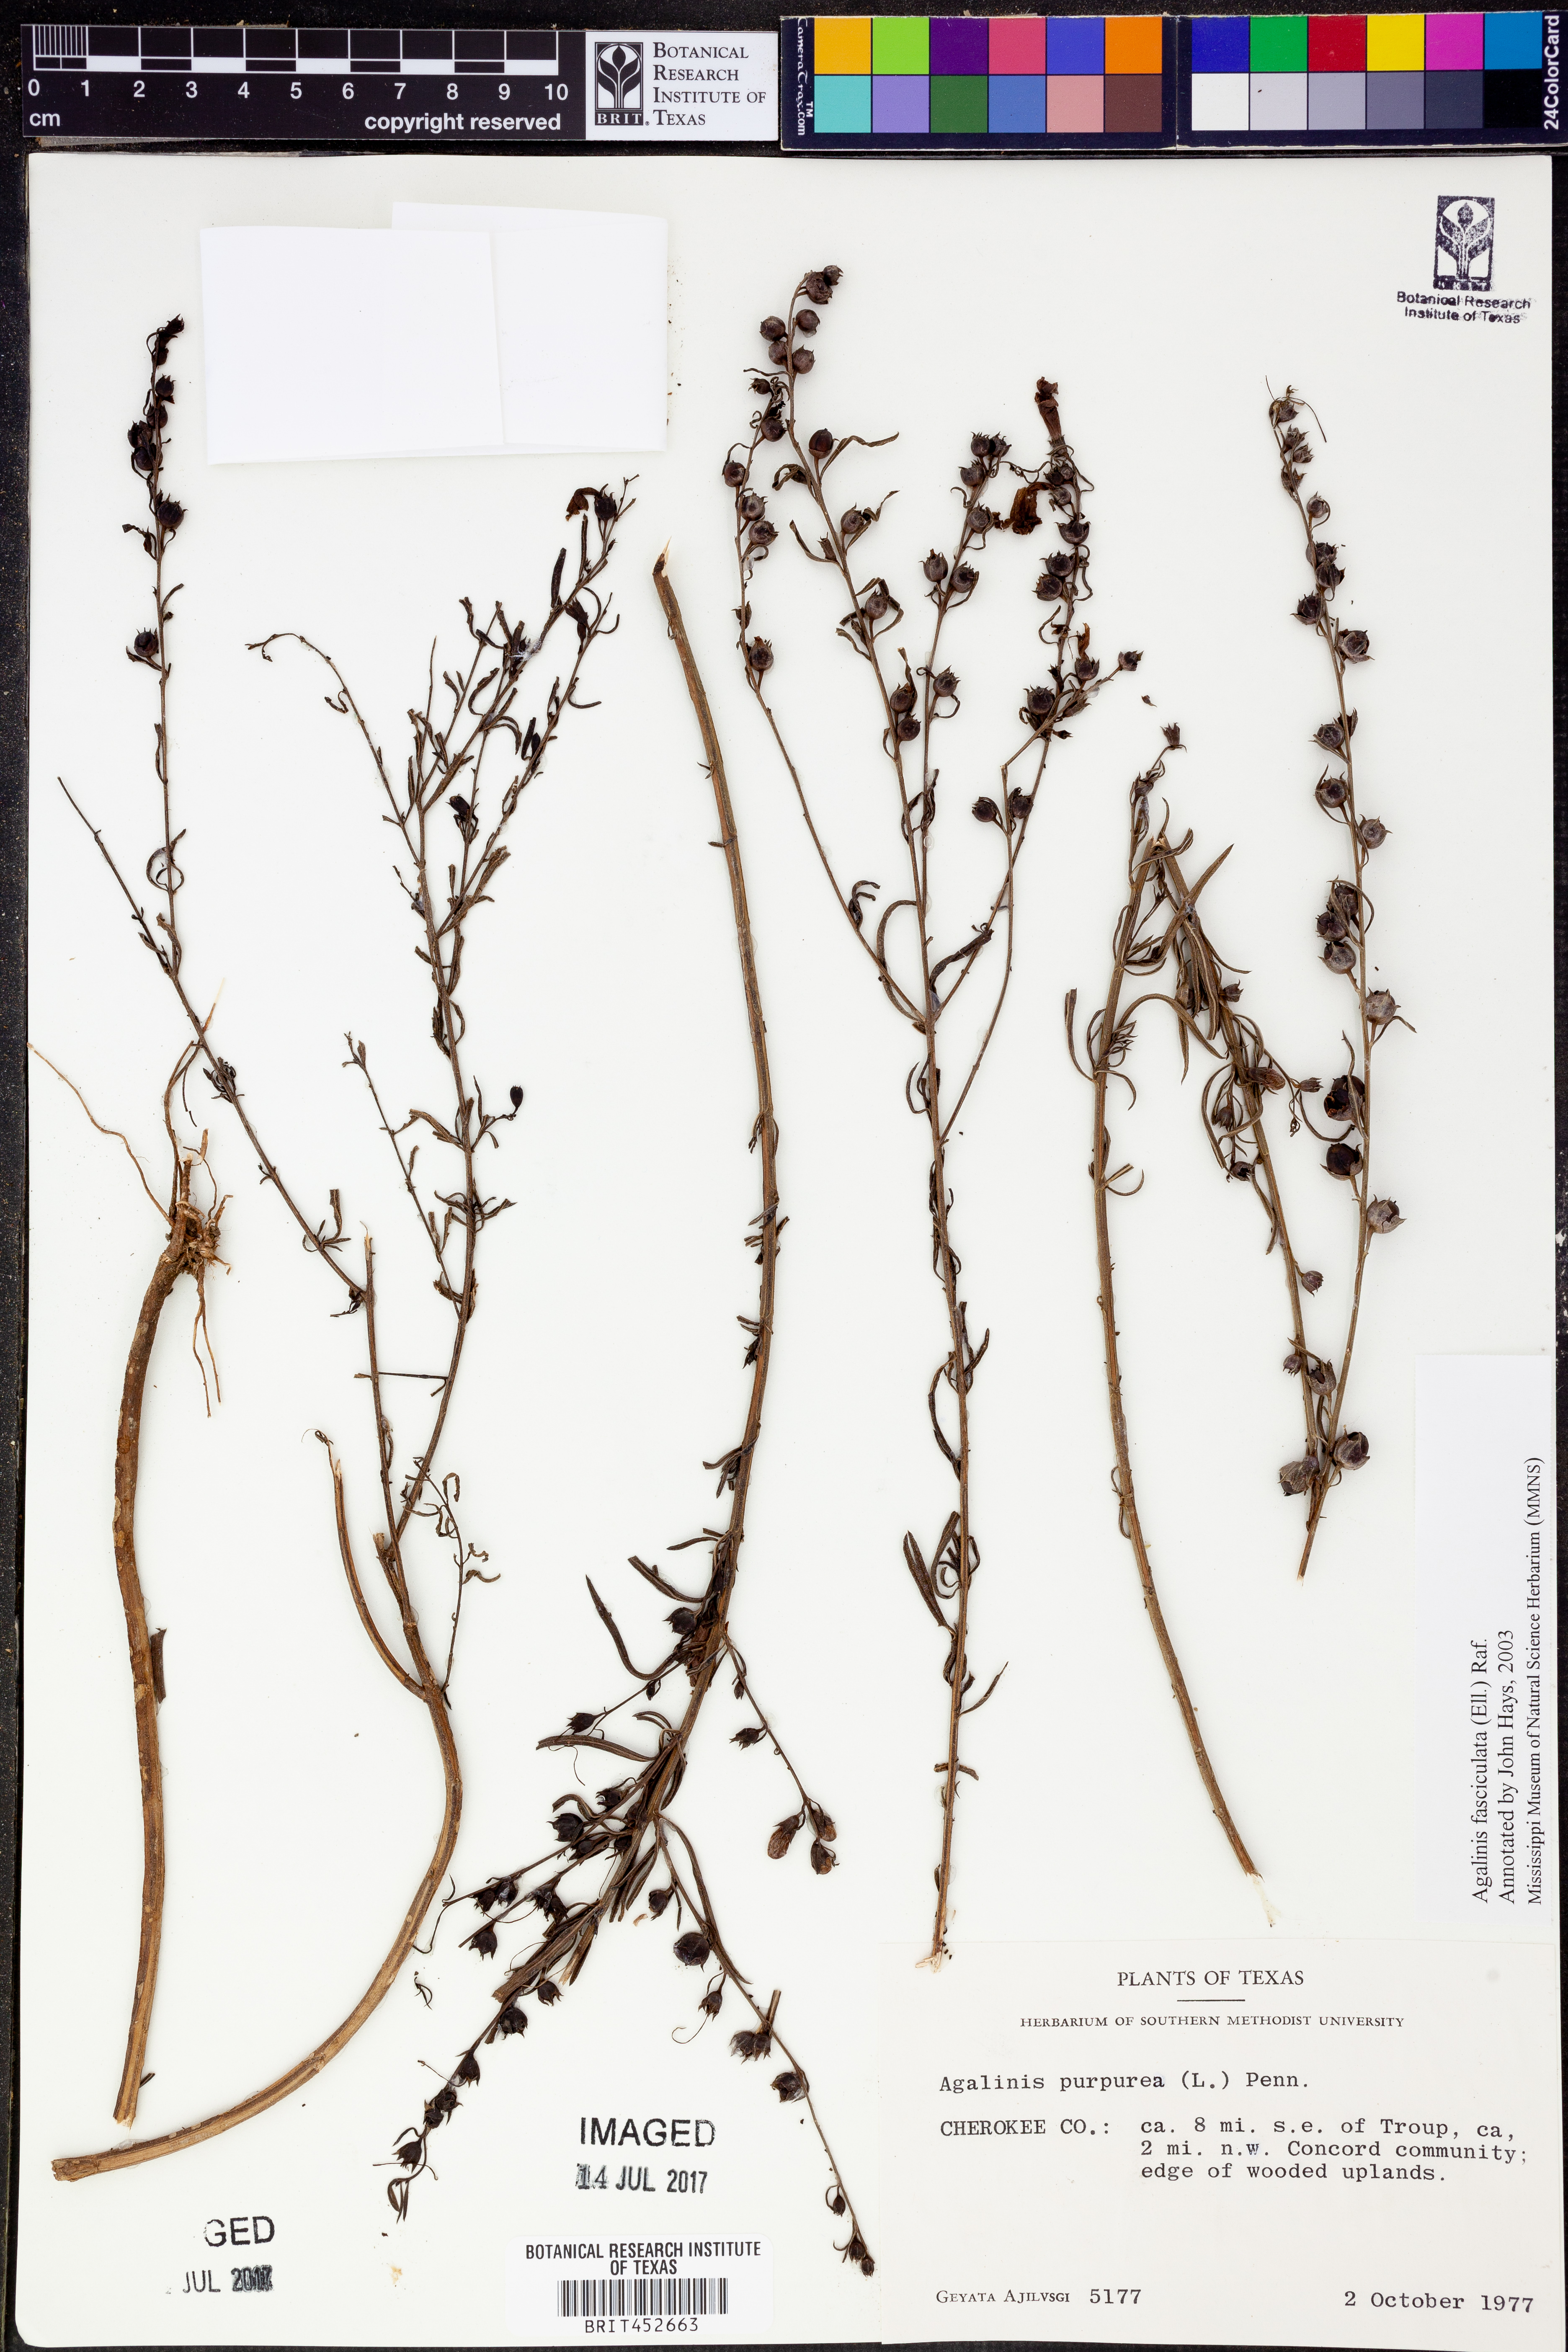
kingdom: Plantae
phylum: Tracheophyta
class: Magnoliopsida
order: Lamiales
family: Orobanchaceae
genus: Agalinis
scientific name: Agalinis purpurea
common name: Purple false foxglove
